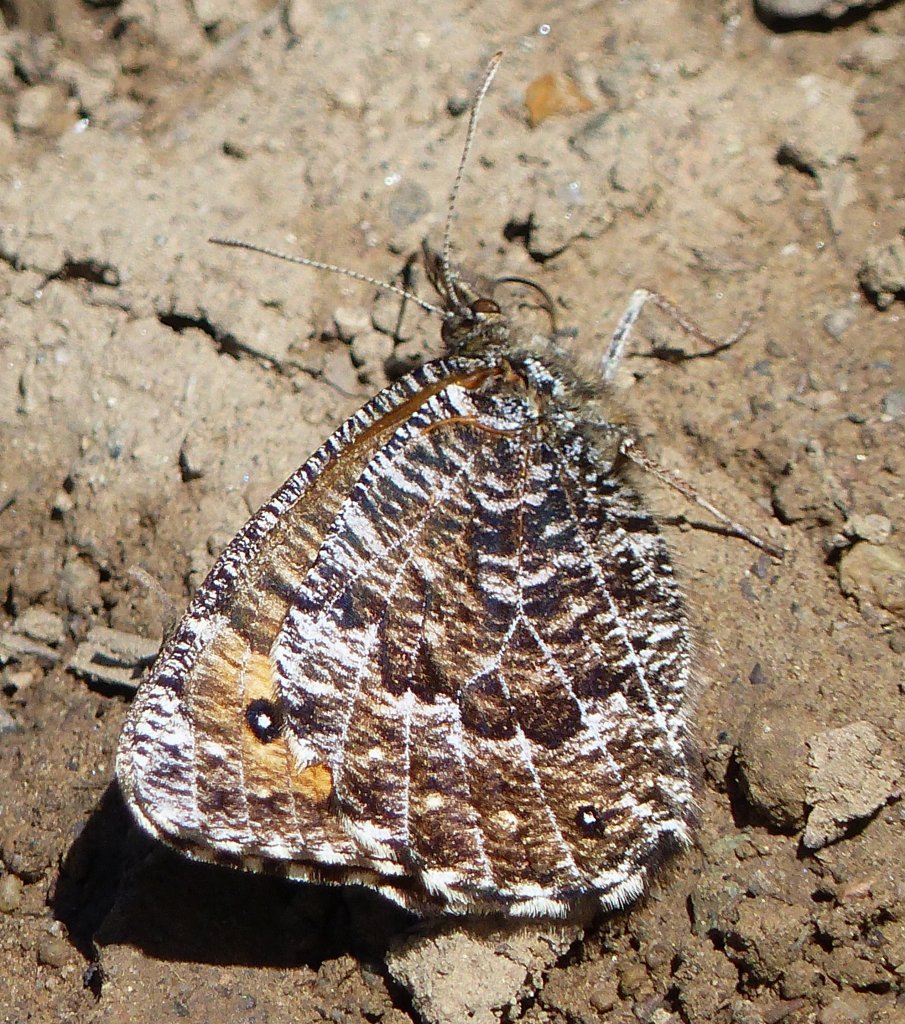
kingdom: Animalia
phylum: Arthropoda
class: Insecta
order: Lepidoptera
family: Nymphalidae
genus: Oeneis
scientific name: Oeneis chryxus
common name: Chryxus Arctic
